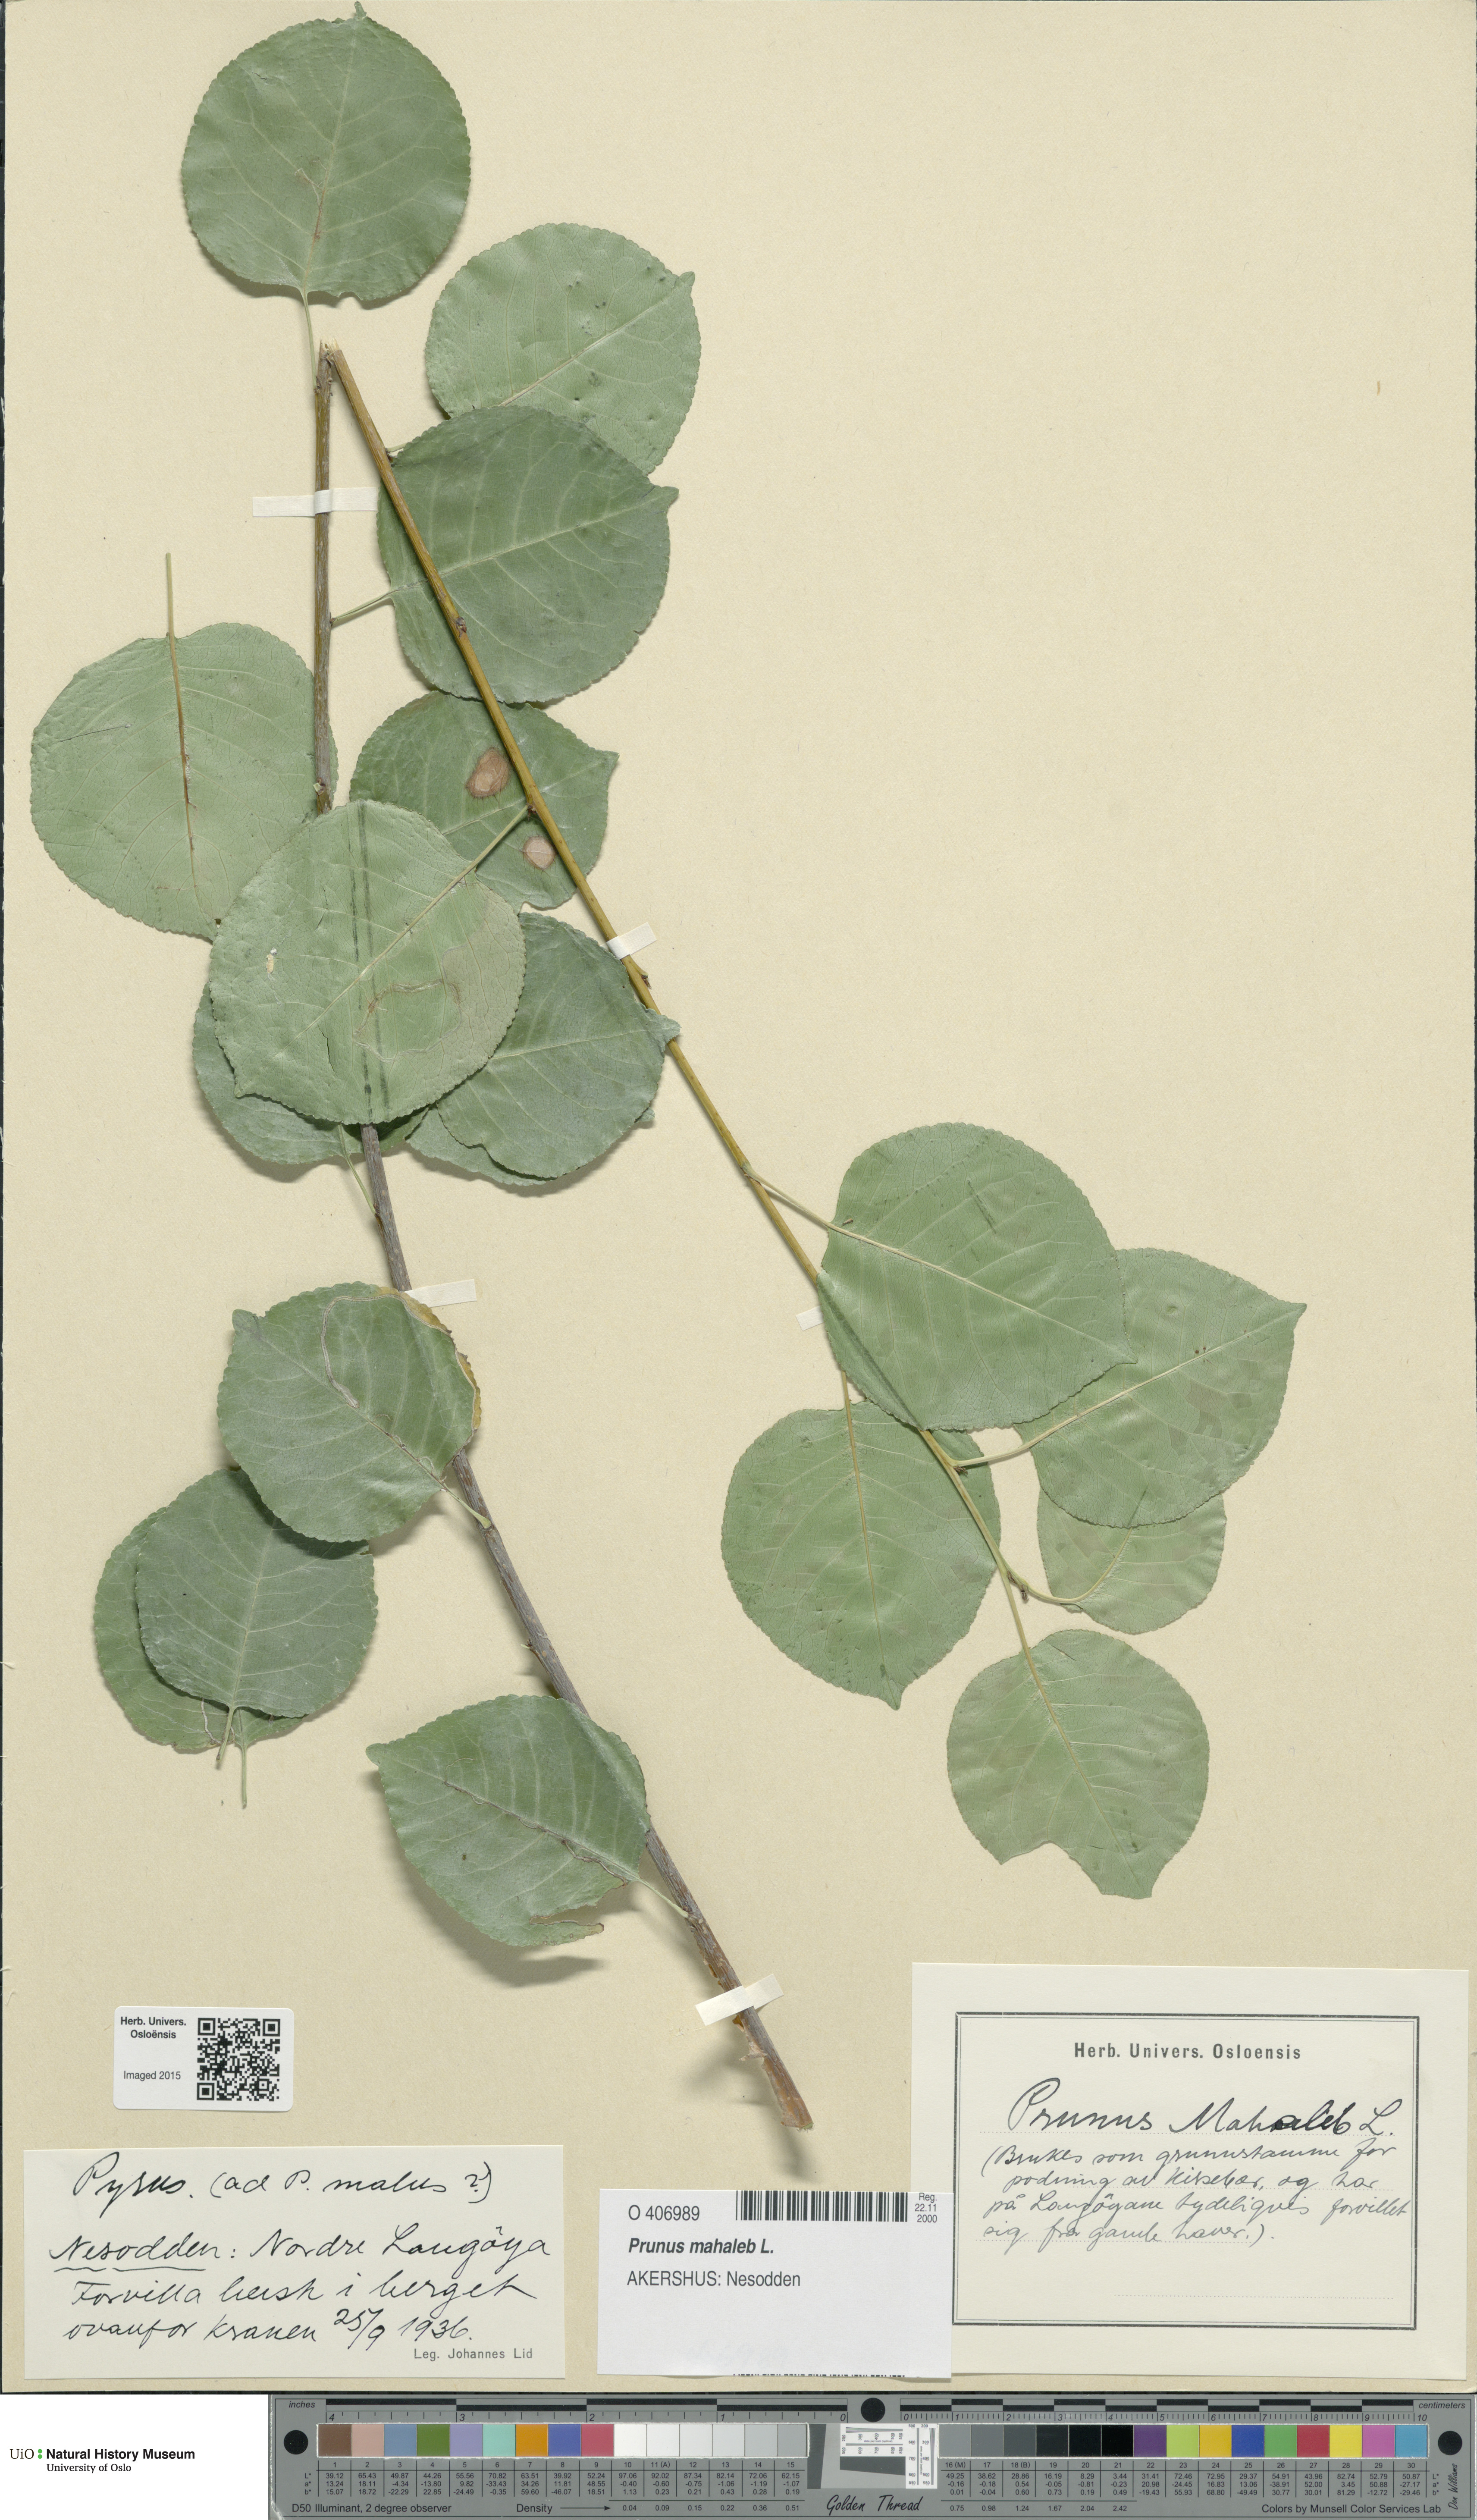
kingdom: Plantae
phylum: Tracheophyta
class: Magnoliopsida
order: Rosales
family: Rosaceae
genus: Prunus
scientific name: Prunus mahaleb
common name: Mahaleb cherry
